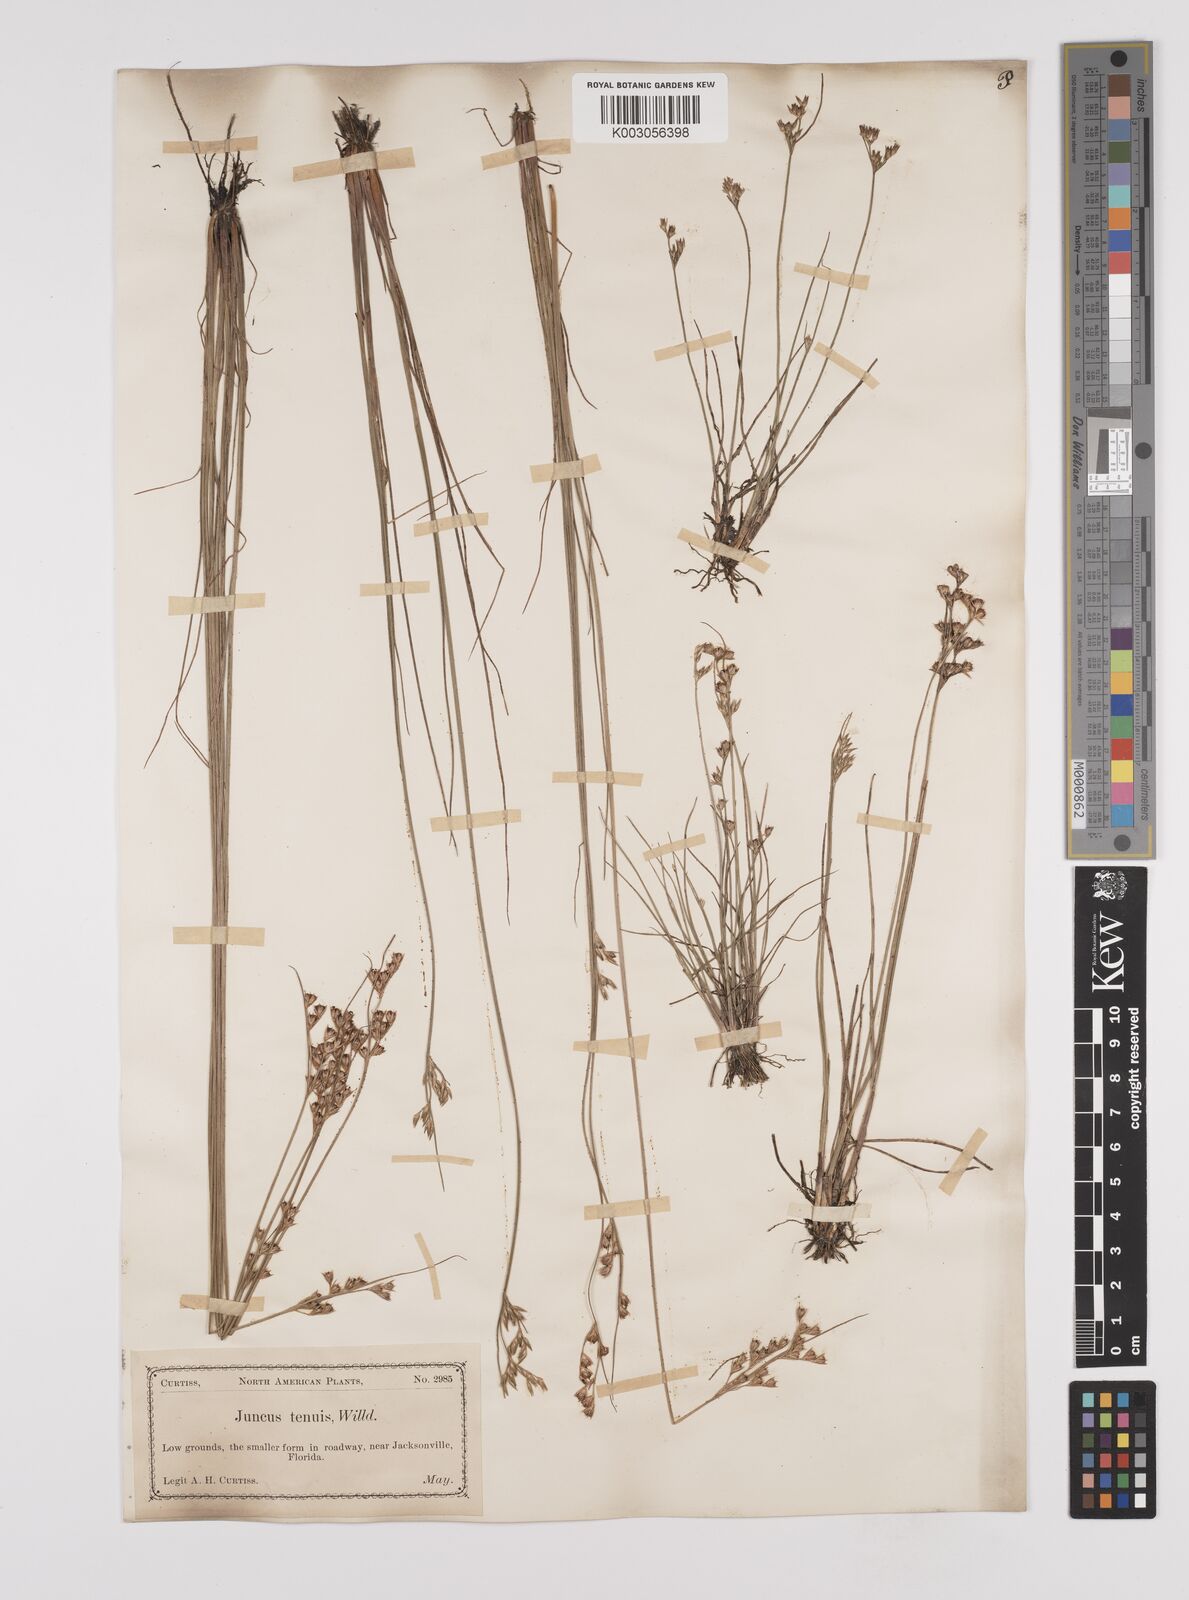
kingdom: Plantae
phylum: Tracheophyta
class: Liliopsida
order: Poales
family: Juncaceae
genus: Juncus
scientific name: Juncus tenuis
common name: Slender rush
